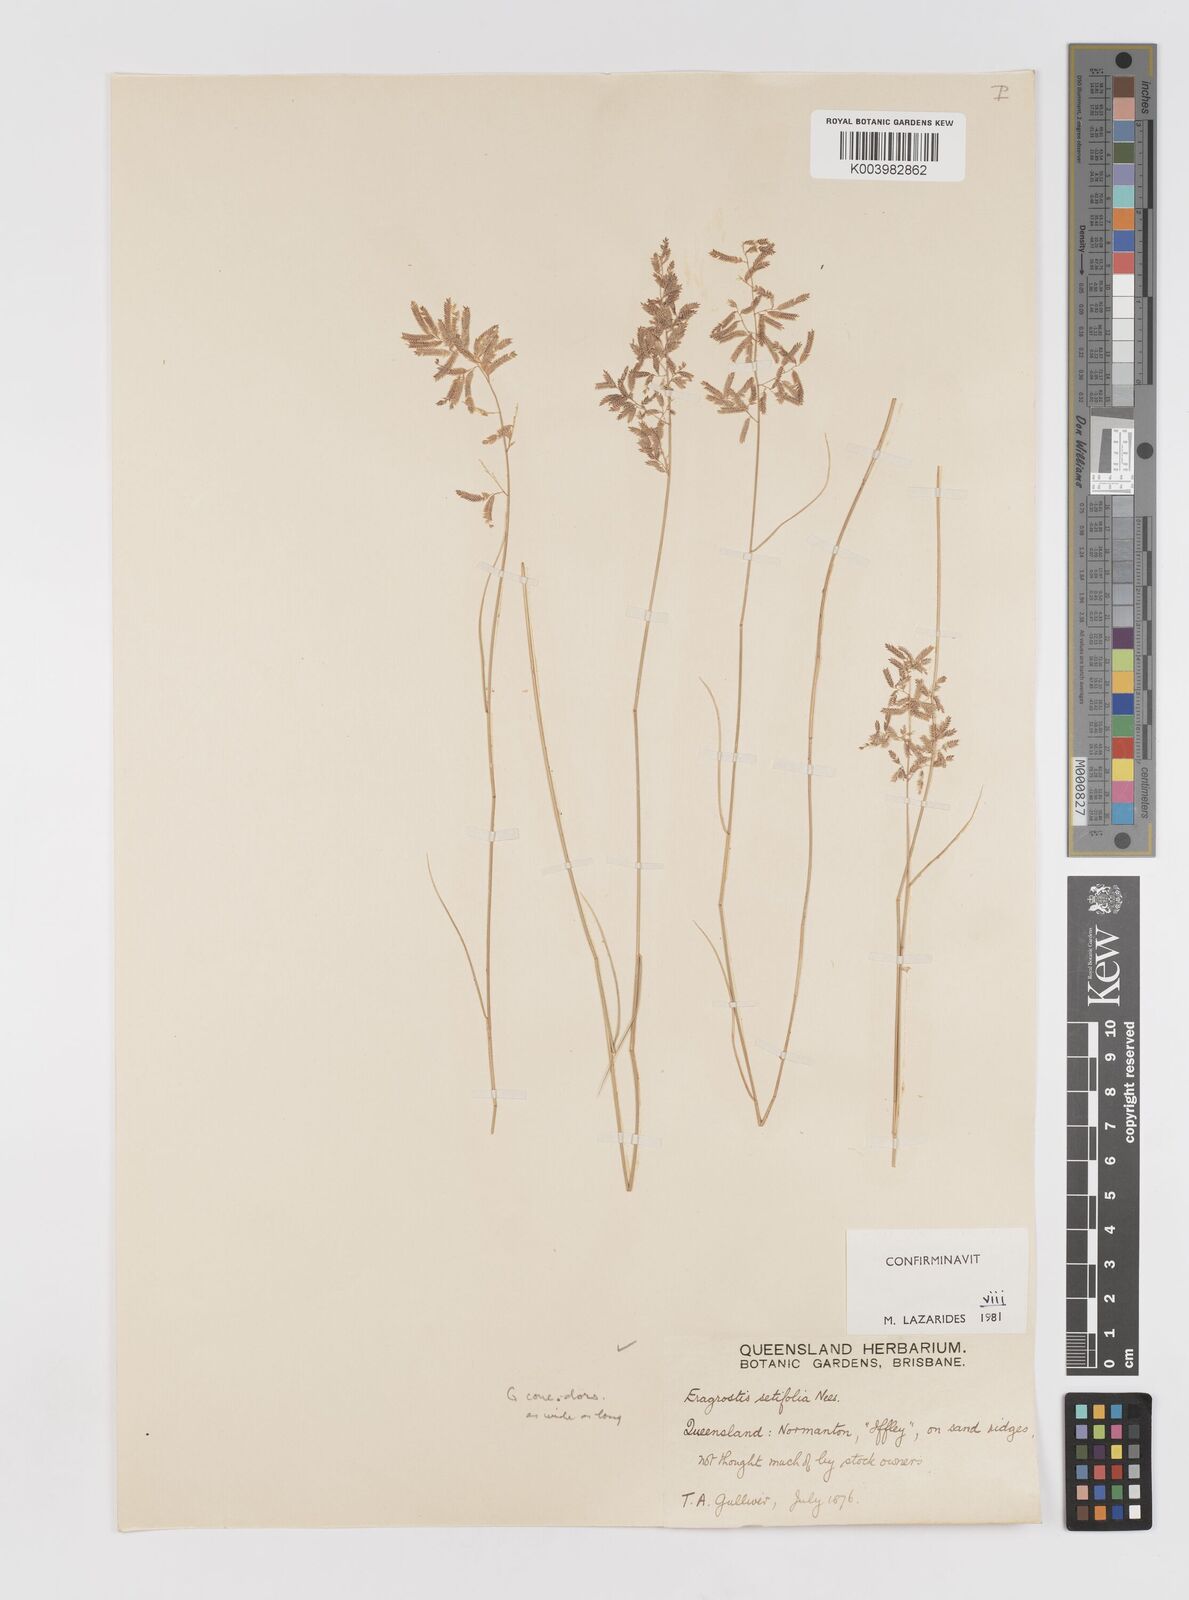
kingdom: Plantae
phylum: Tracheophyta
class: Liliopsida
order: Poales
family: Poaceae
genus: Eragrostis
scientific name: Eragrostis setifolia
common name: Bristleleaf lovegrass
